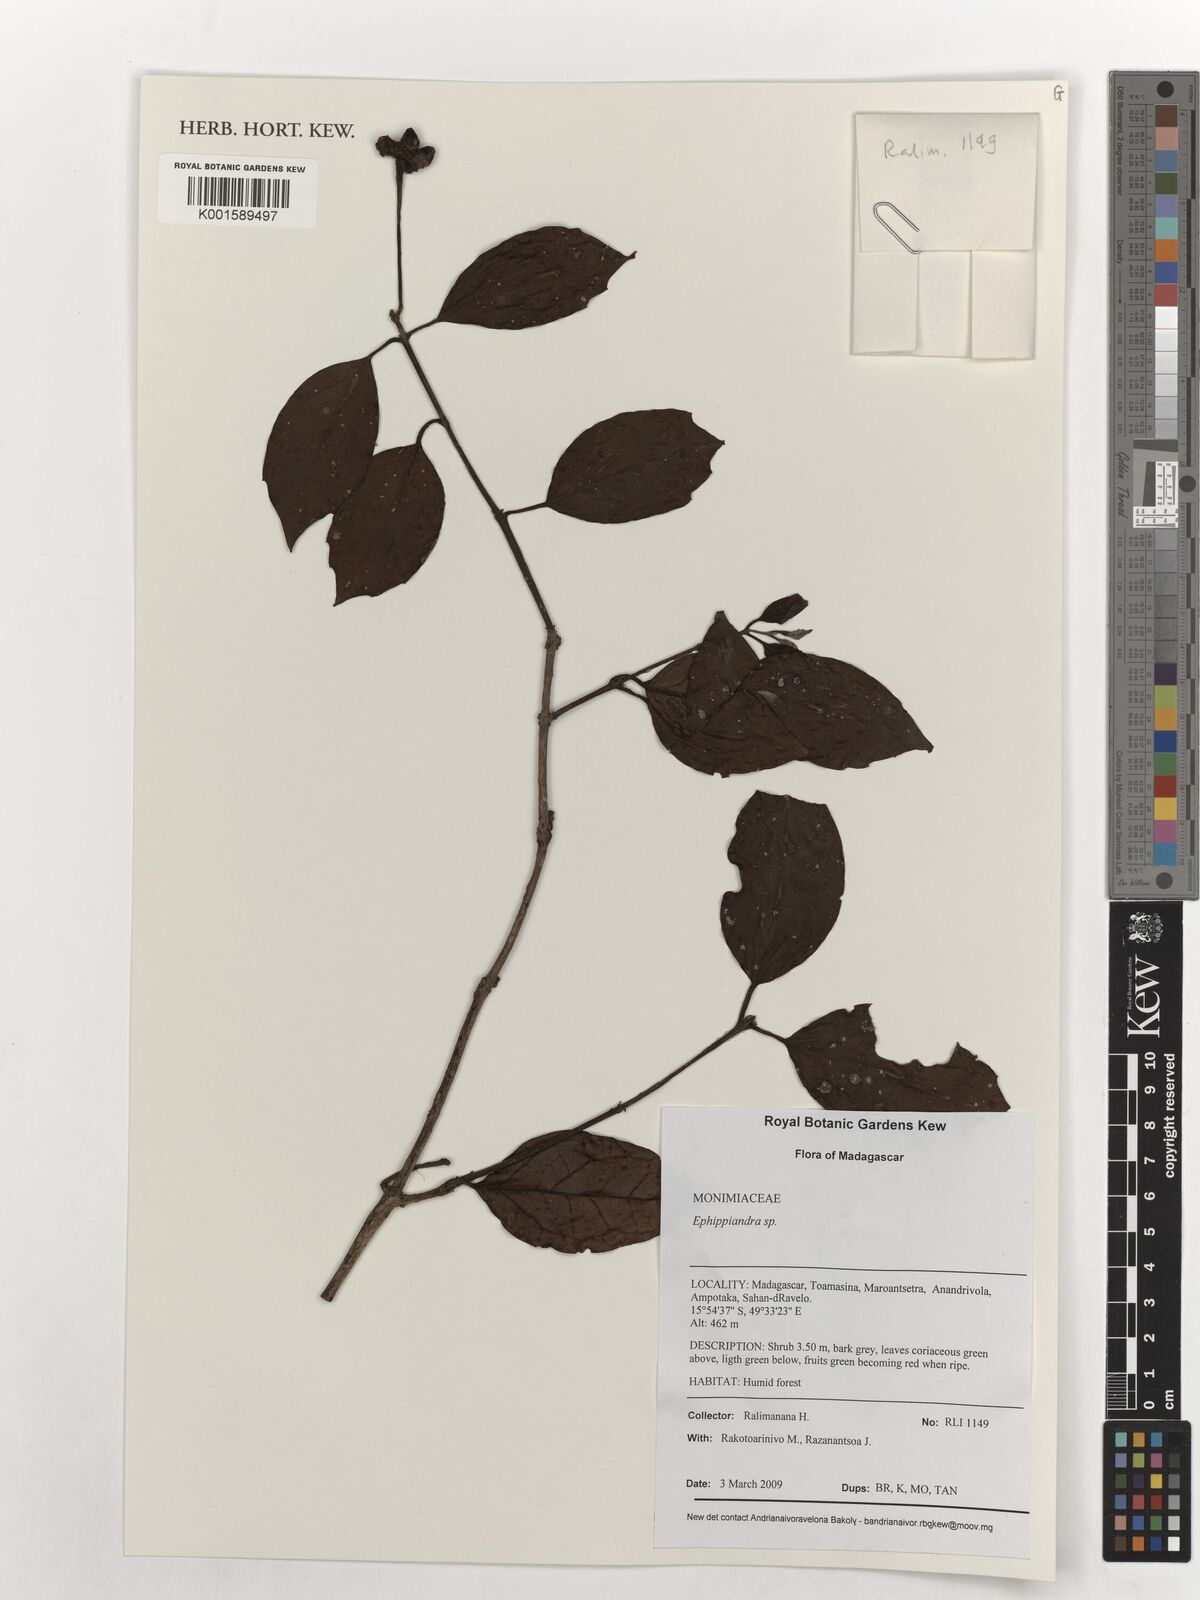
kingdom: Plantae
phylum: Tracheophyta
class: Magnoliopsida
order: Laurales
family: Monimiaceae
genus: Ephippiandra
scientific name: Ephippiandra
